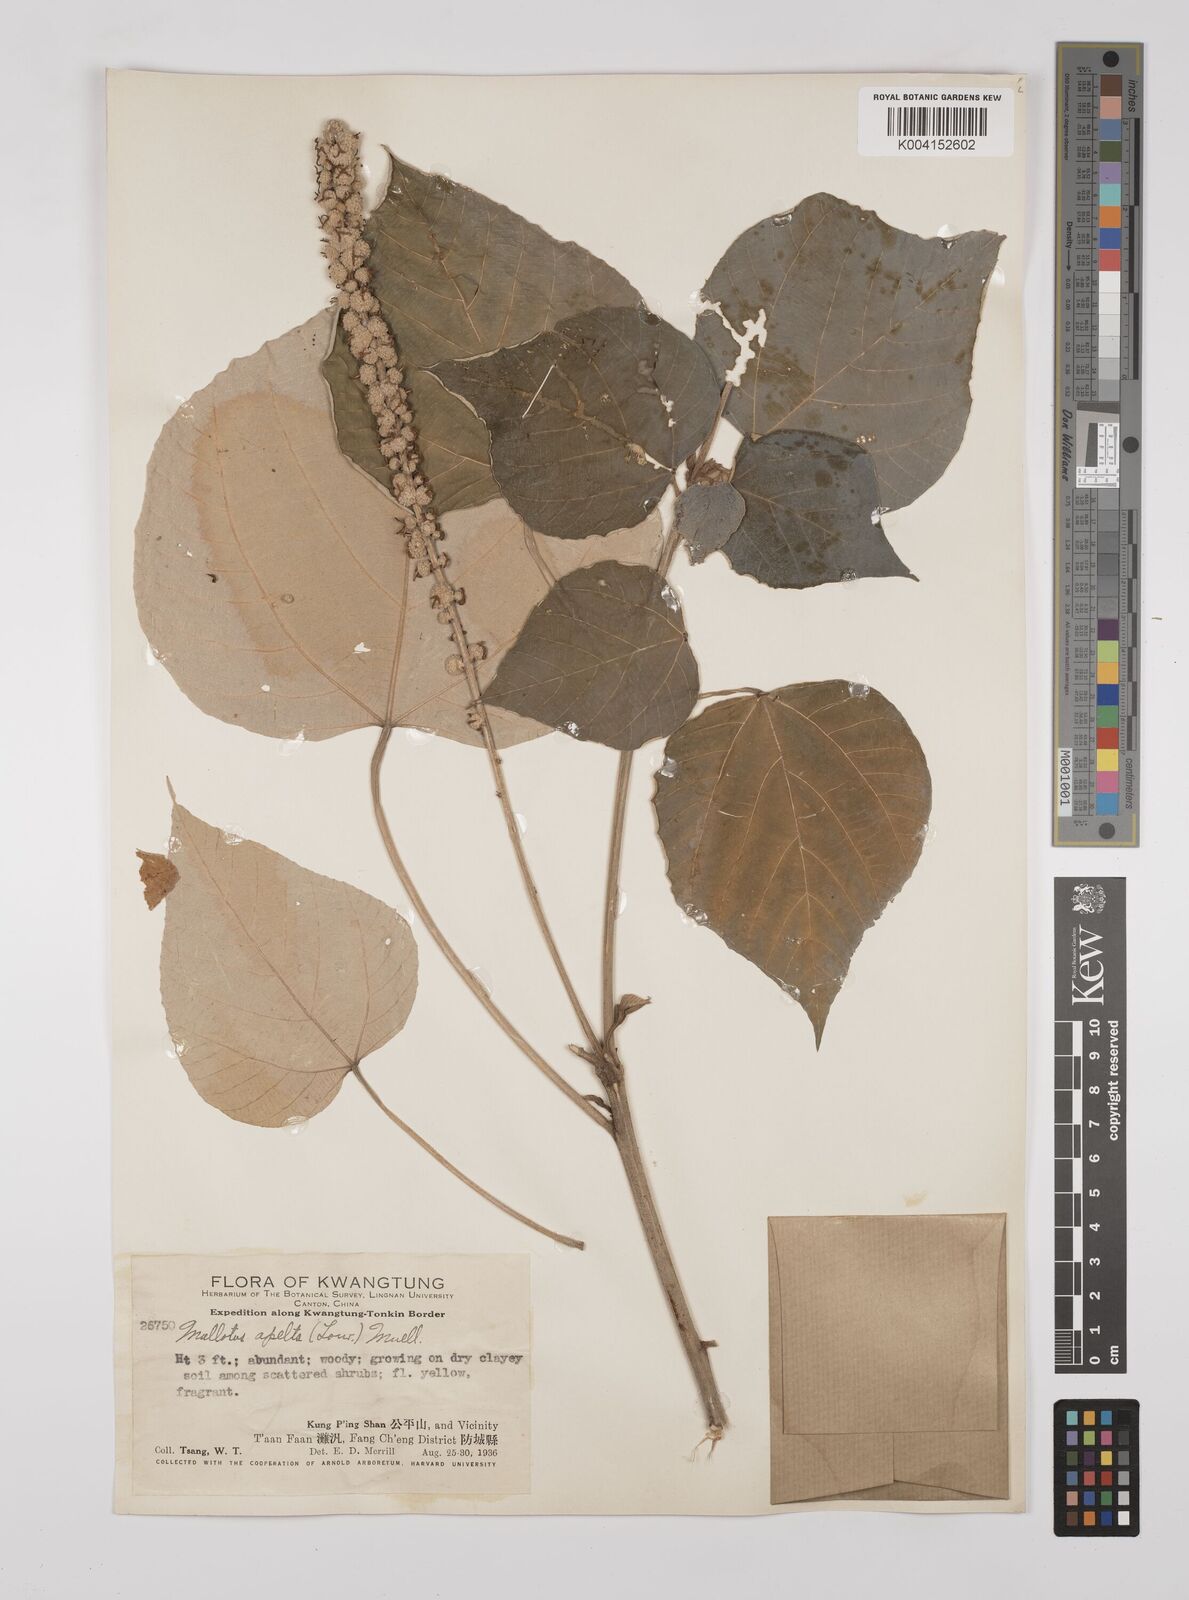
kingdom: Plantae
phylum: Tracheophyta
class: Magnoliopsida
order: Malpighiales
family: Euphorbiaceae
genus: Mallotus
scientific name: Mallotus apelta
